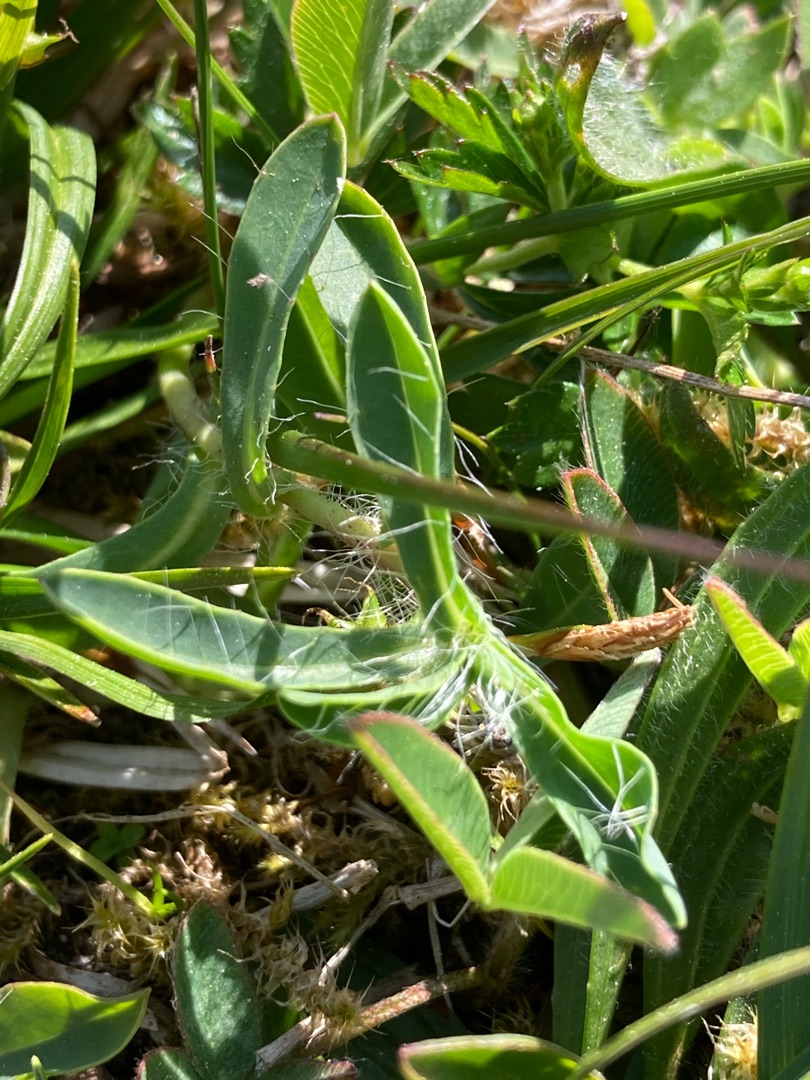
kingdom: Plantae
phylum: Tracheophyta
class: Magnoliopsida
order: Asterales
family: Asteraceae
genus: Pilosella
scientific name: Pilosella lactucella
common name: Lancetbladet høgeurt
